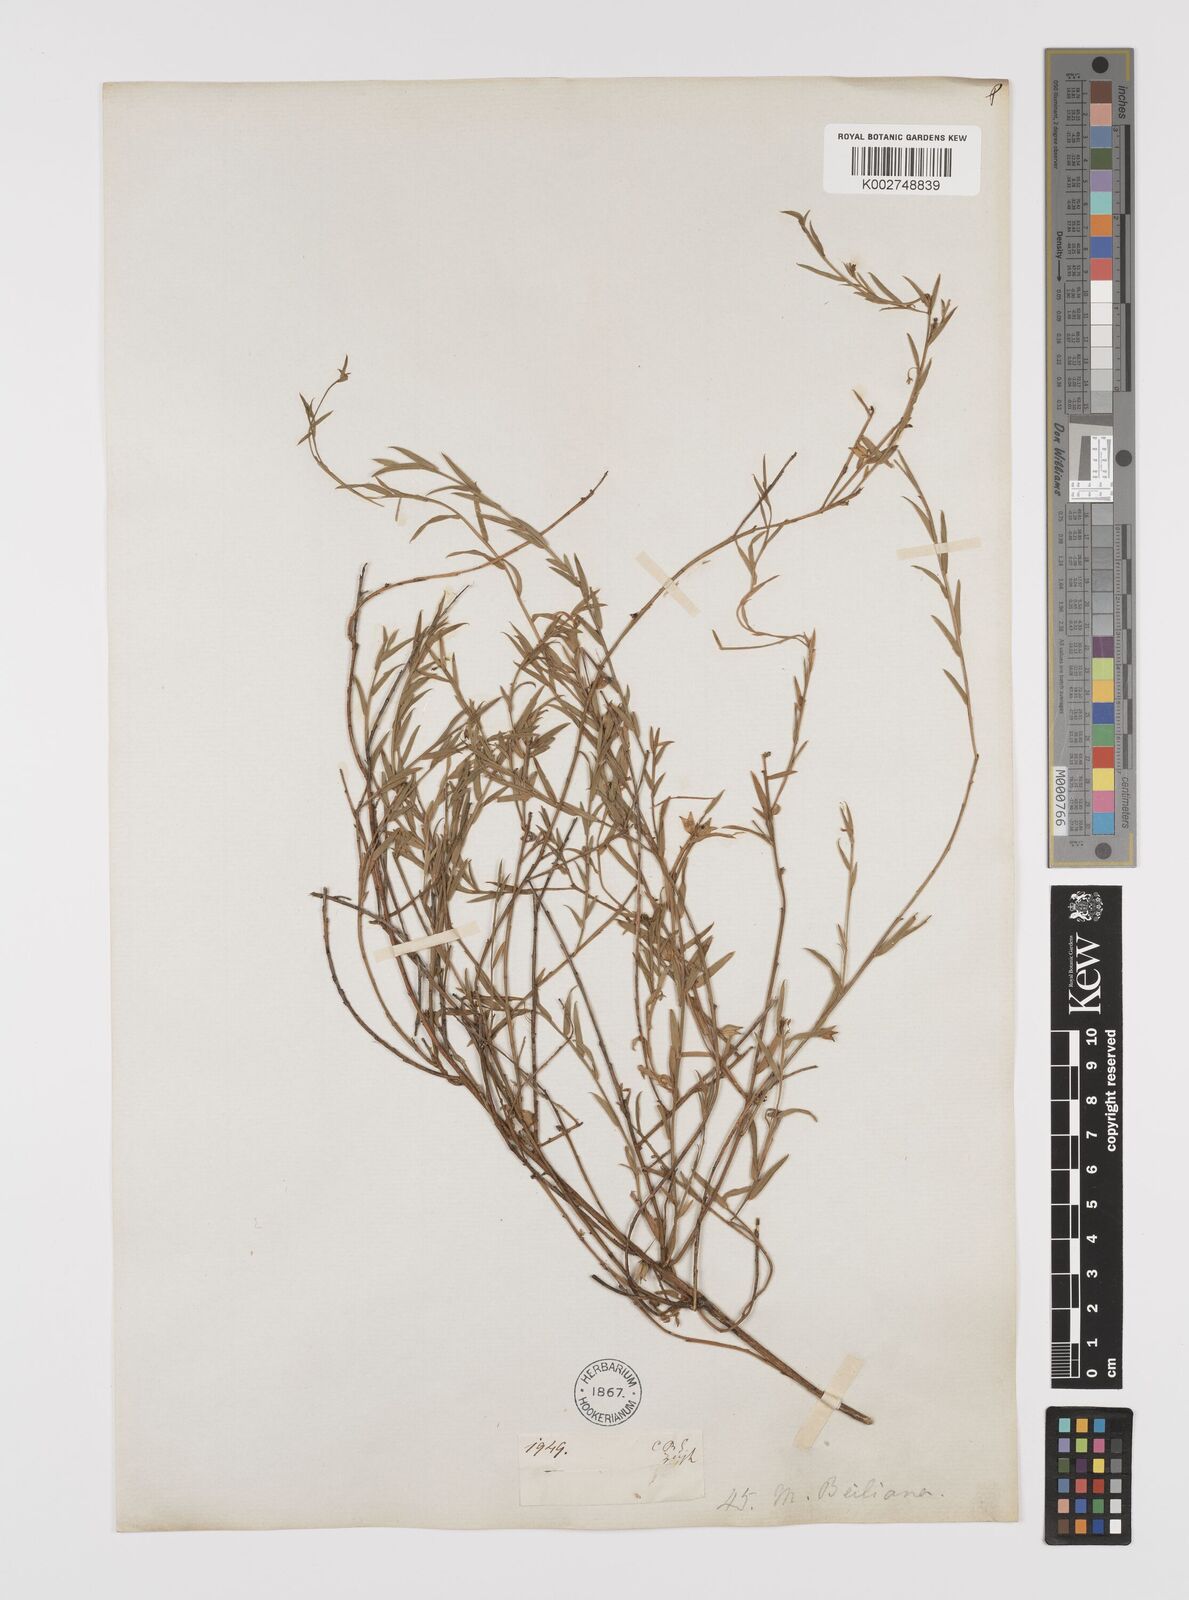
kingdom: Plantae
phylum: Tracheophyta
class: Magnoliopsida
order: Fabales
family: Polygalaceae
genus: Muraltia
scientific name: Muraltia muraltioides
